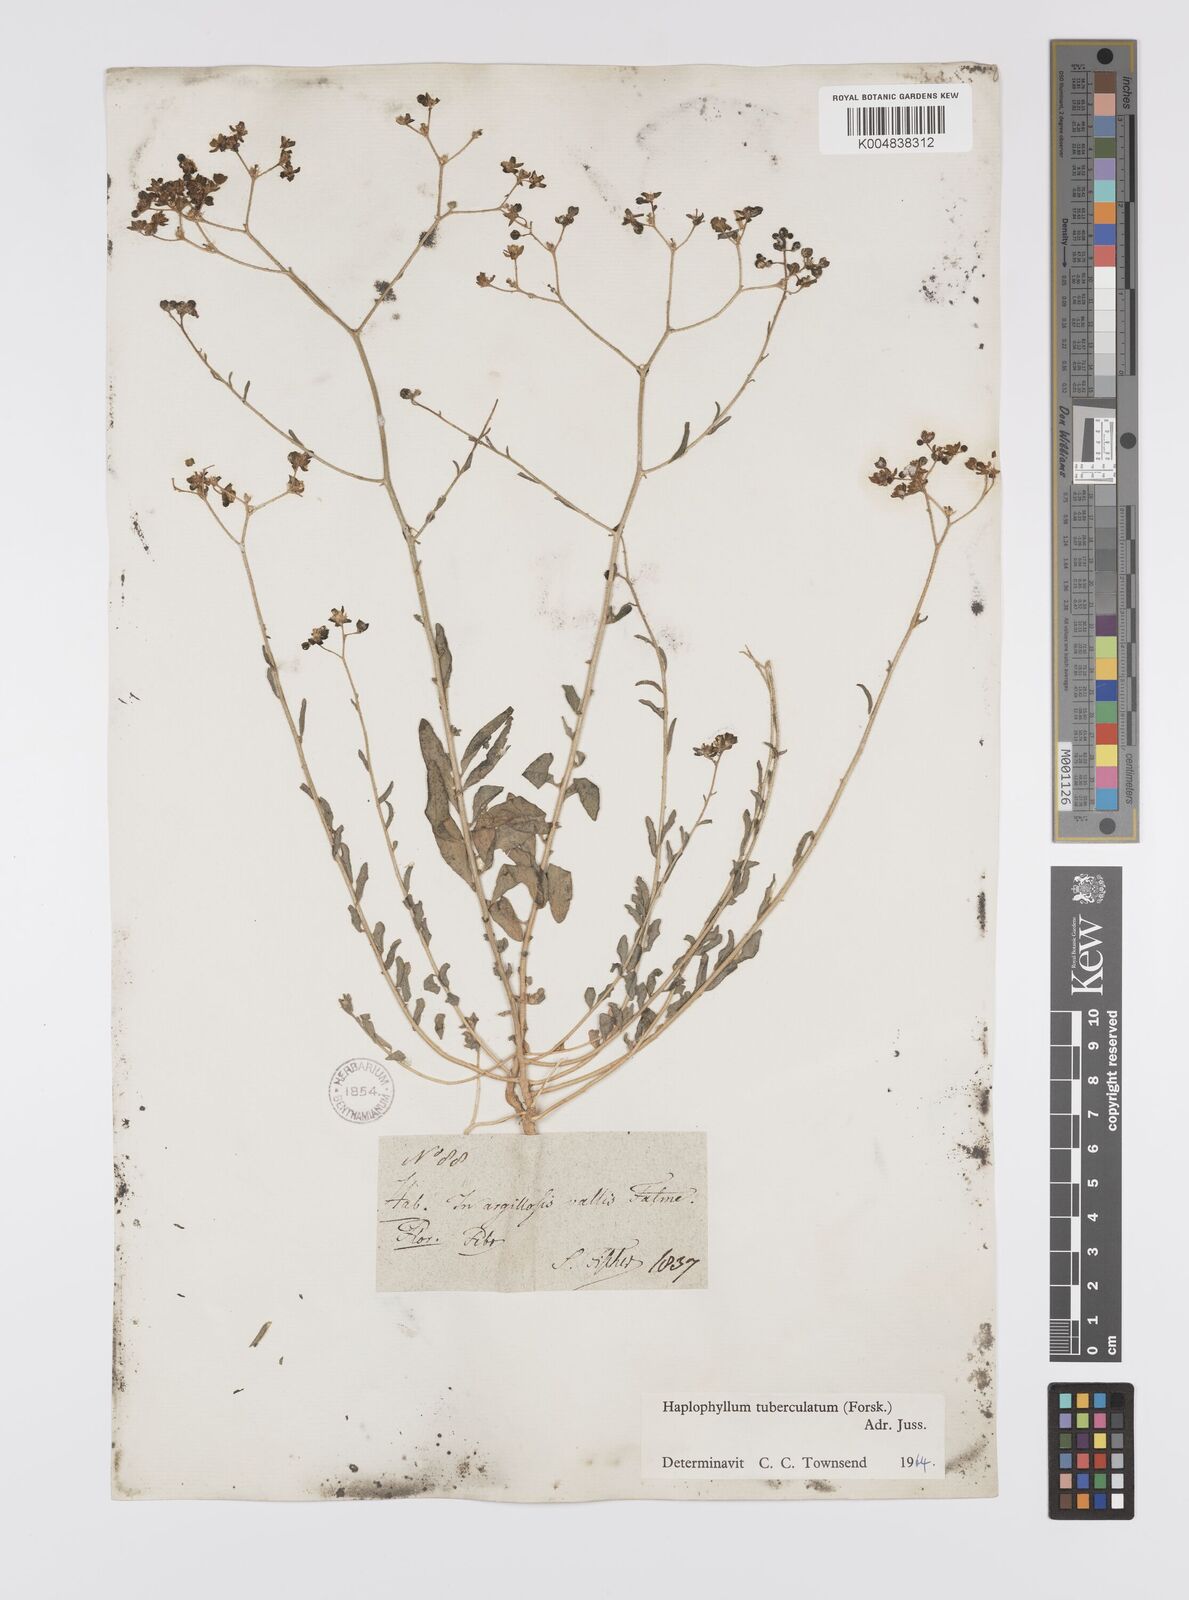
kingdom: Plantae
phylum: Tracheophyta
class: Magnoliopsida
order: Sapindales
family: Rutaceae
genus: Haplophyllum
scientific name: Haplophyllum tuberculatum
